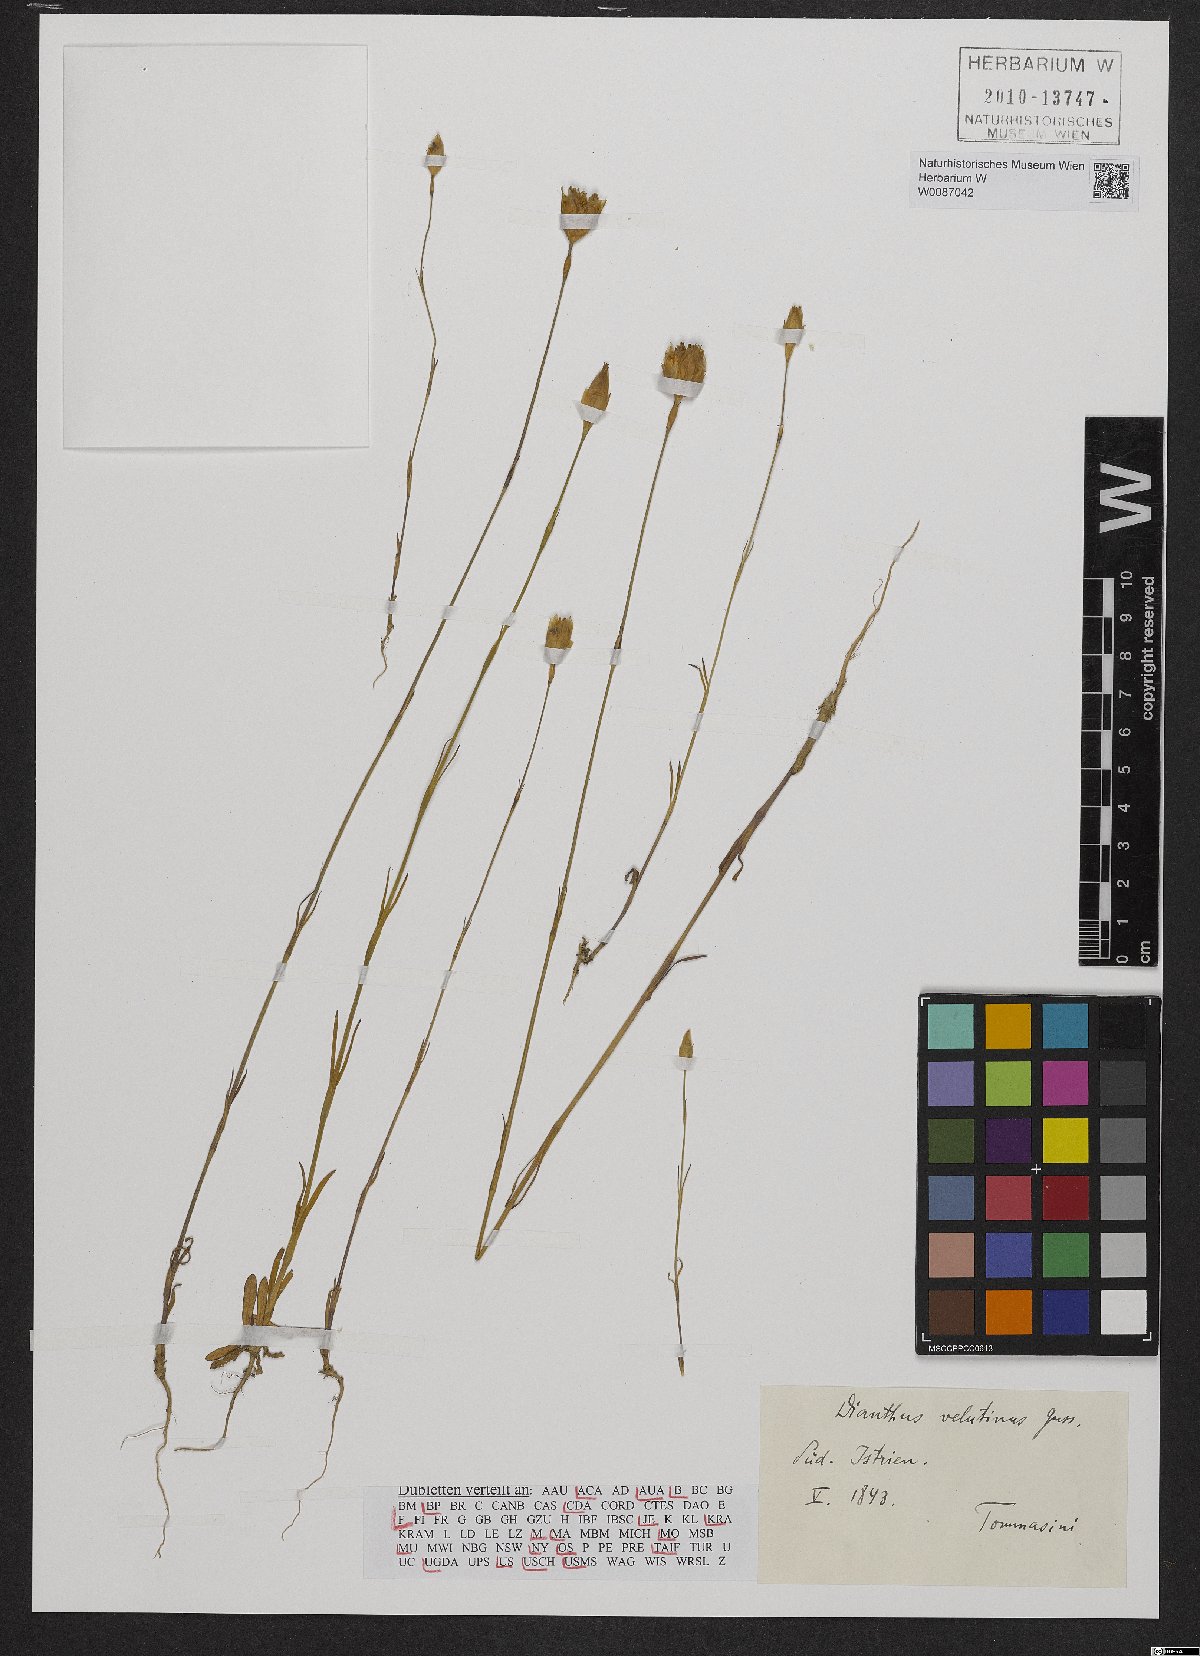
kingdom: Plantae
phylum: Tracheophyta
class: Magnoliopsida
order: Caryophyllales
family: Caryophyllaceae
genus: Petrorhagia
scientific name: Petrorhagia dubia
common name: Hairypink
